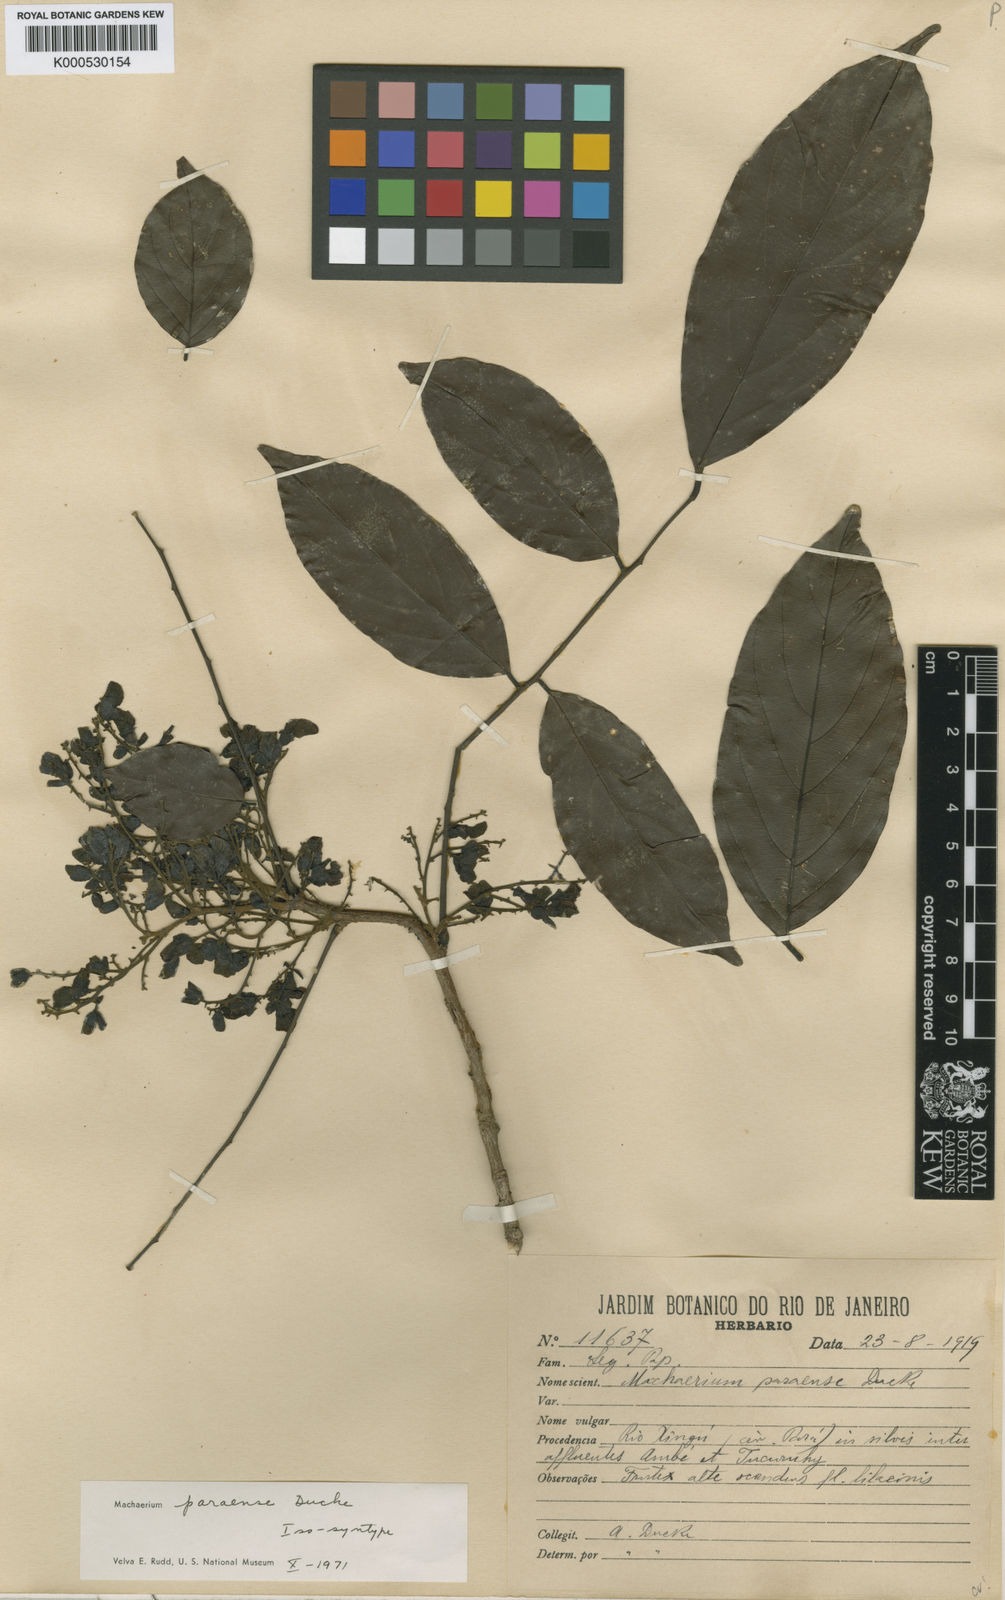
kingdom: Plantae
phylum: Tracheophyta
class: Magnoliopsida
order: Fabales
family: Fabaceae
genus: Machaerium
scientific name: Machaerium paraense
